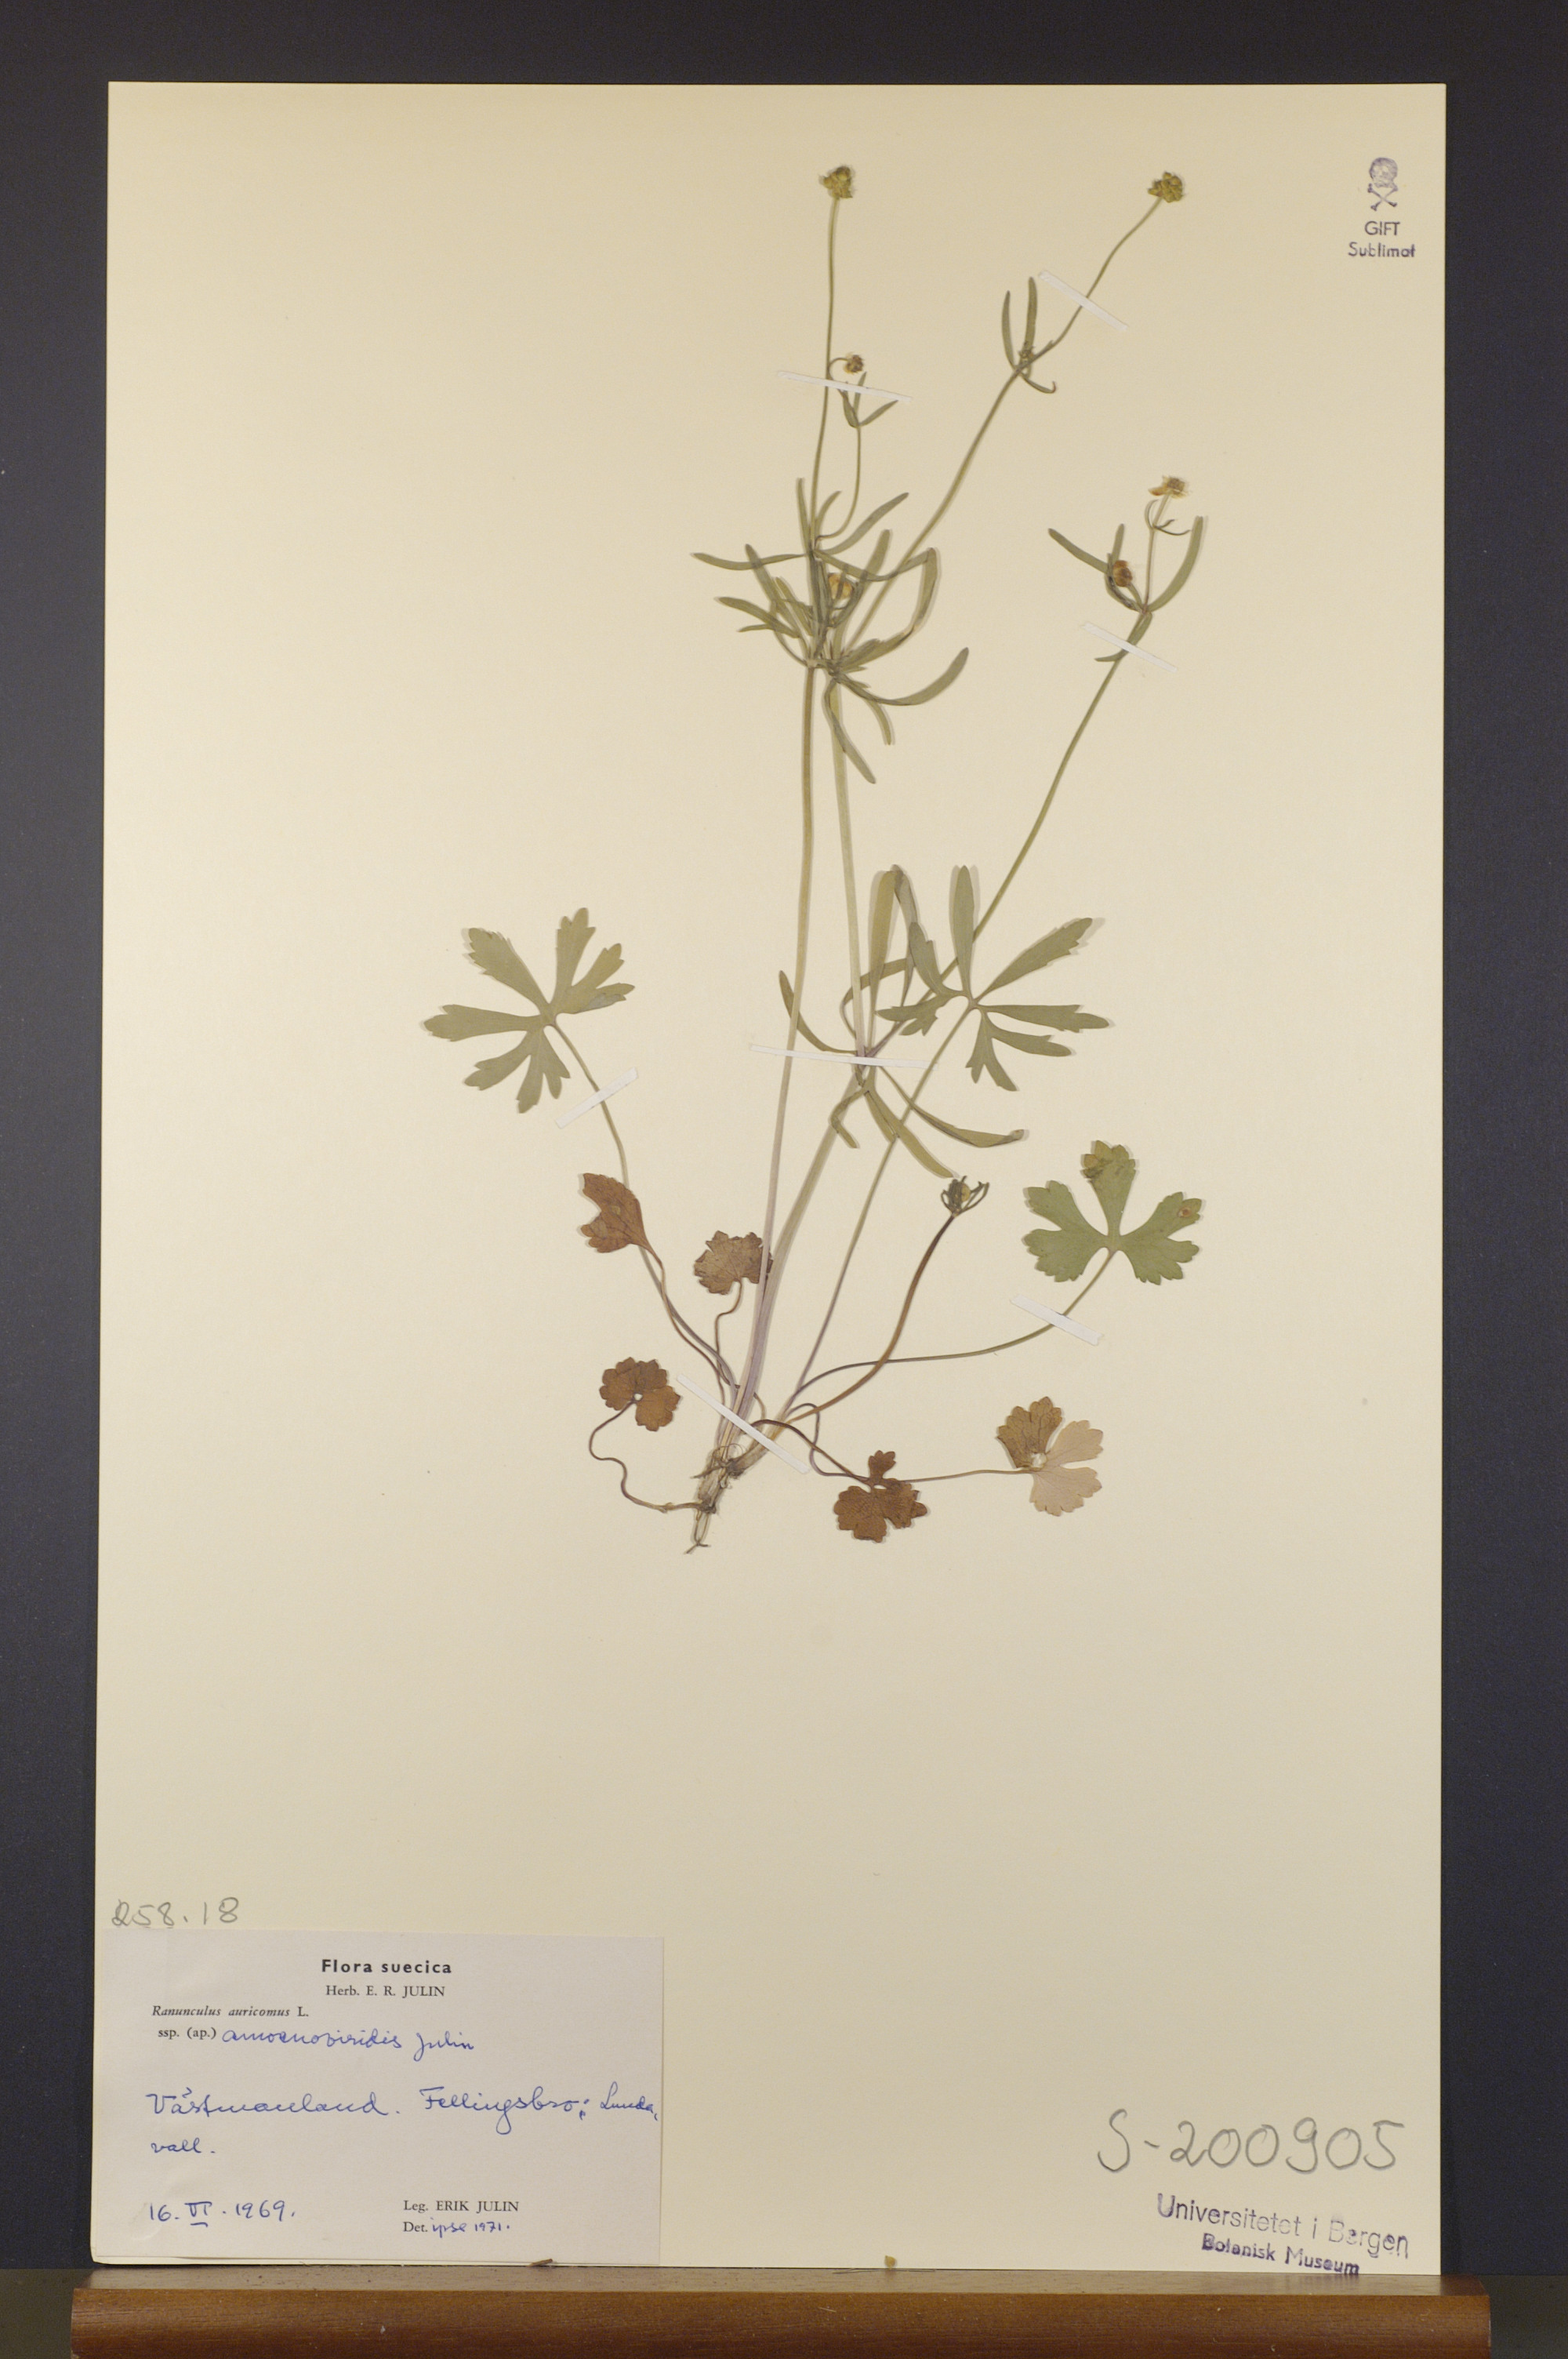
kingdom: Plantae
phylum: Tracheophyta
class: Magnoliopsida
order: Ranunculales
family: Ranunculaceae
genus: Ranunculus
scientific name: Ranunculus amoenoviridis
